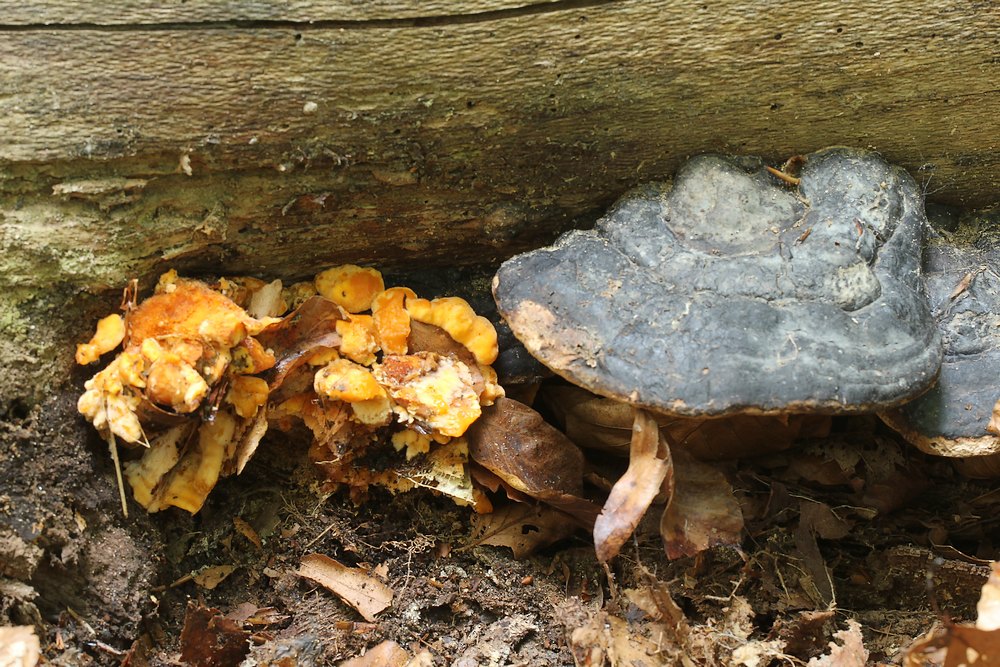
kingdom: Fungi
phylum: Basidiomycota
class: Agaricomycetes
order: Polyporales
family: Pycnoporellaceae
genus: Pycnoporellus
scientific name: Pycnoporellus fulgens
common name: flammeporesvamp
